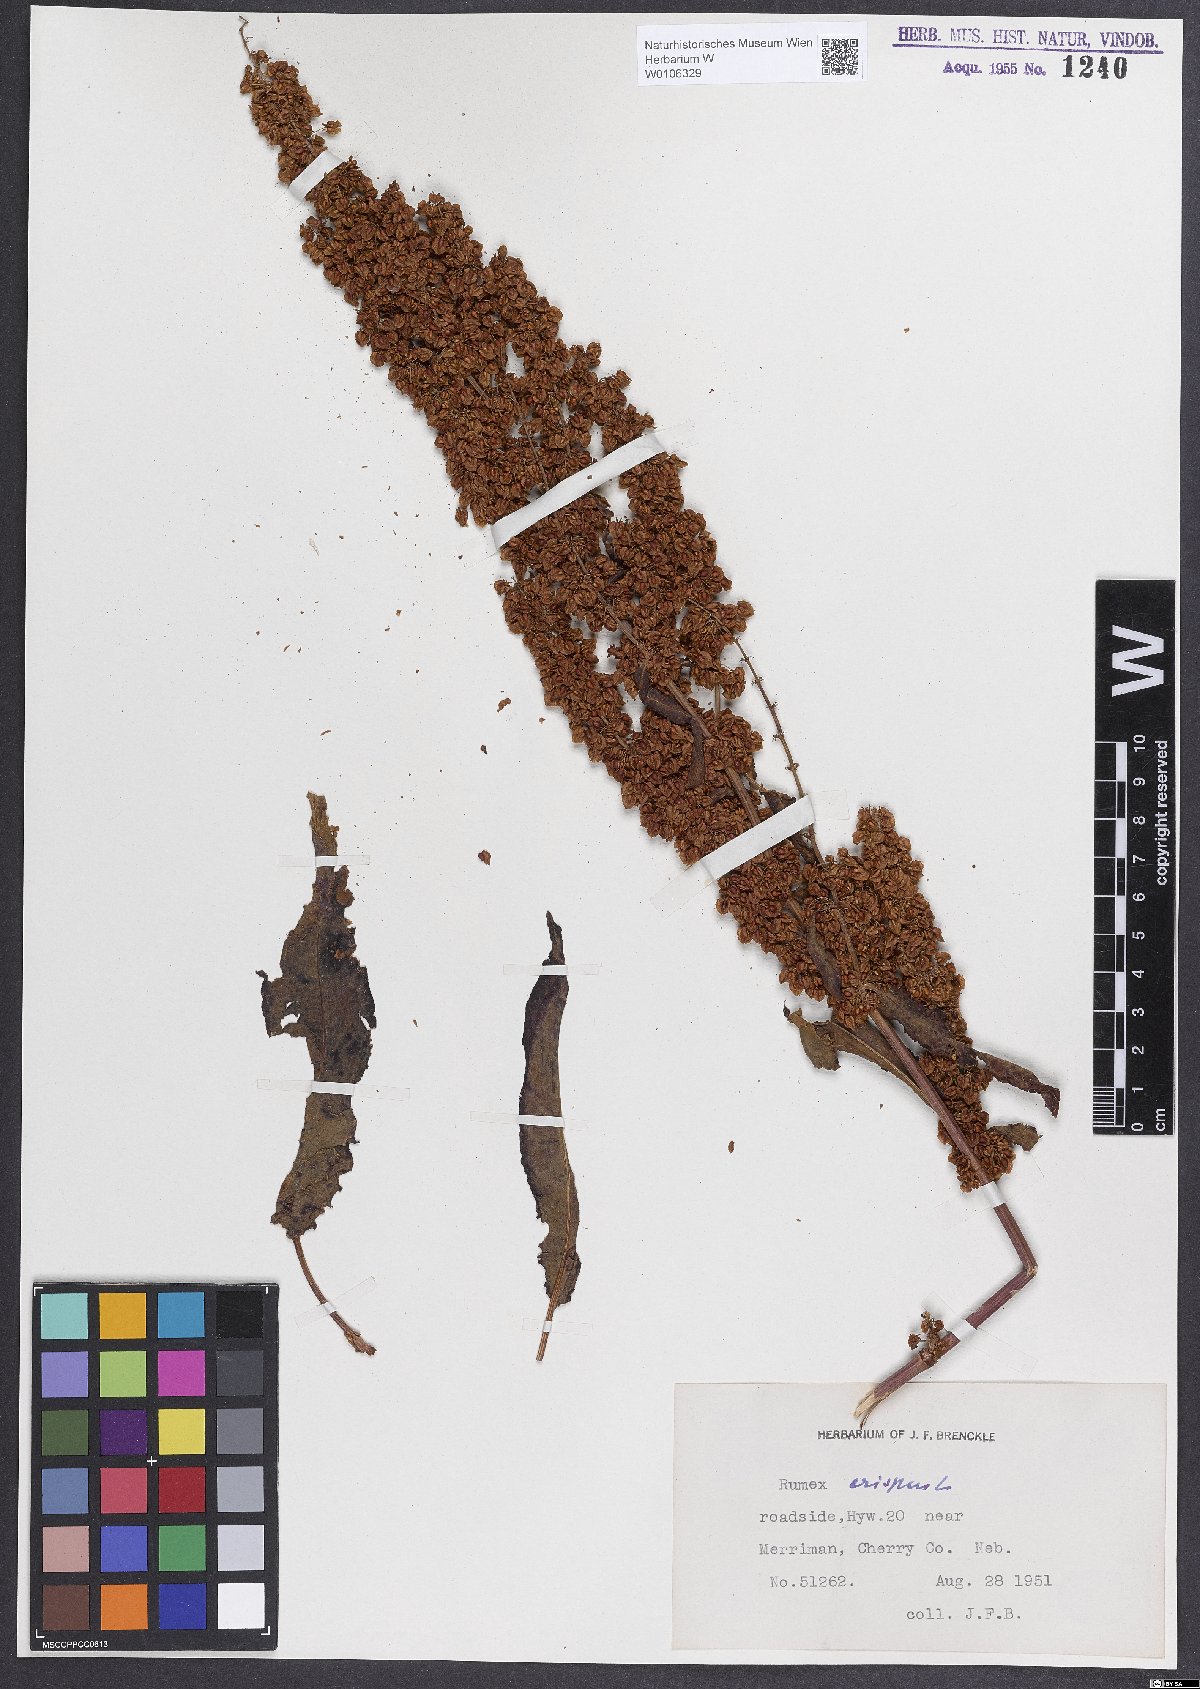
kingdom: Plantae
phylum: Tracheophyta
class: Magnoliopsida
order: Caryophyllales
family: Polygonaceae
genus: Rumex
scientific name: Rumex crispus
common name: Curled dock
